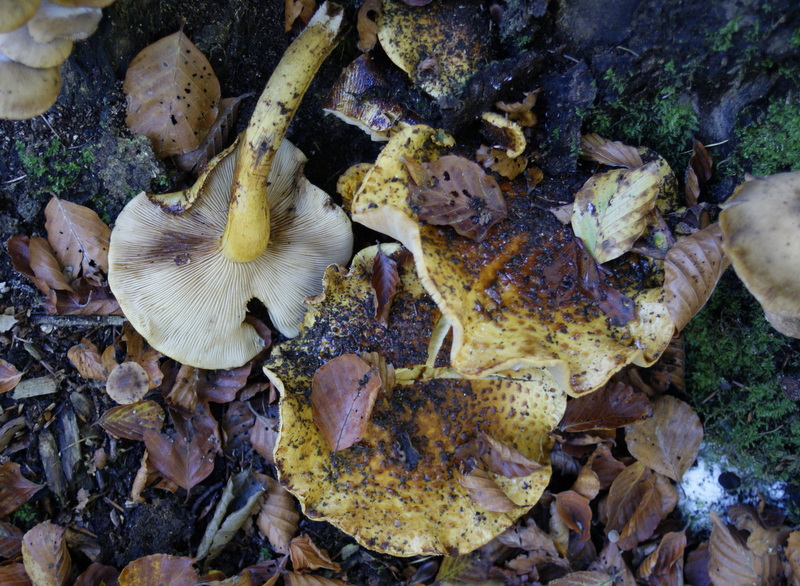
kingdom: Fungi
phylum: Basidiomycota
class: Agaricomycetes
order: Agaricales
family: Strophariaceae
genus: Pholiota
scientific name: Pholiota jahnii
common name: slimet skælhat
